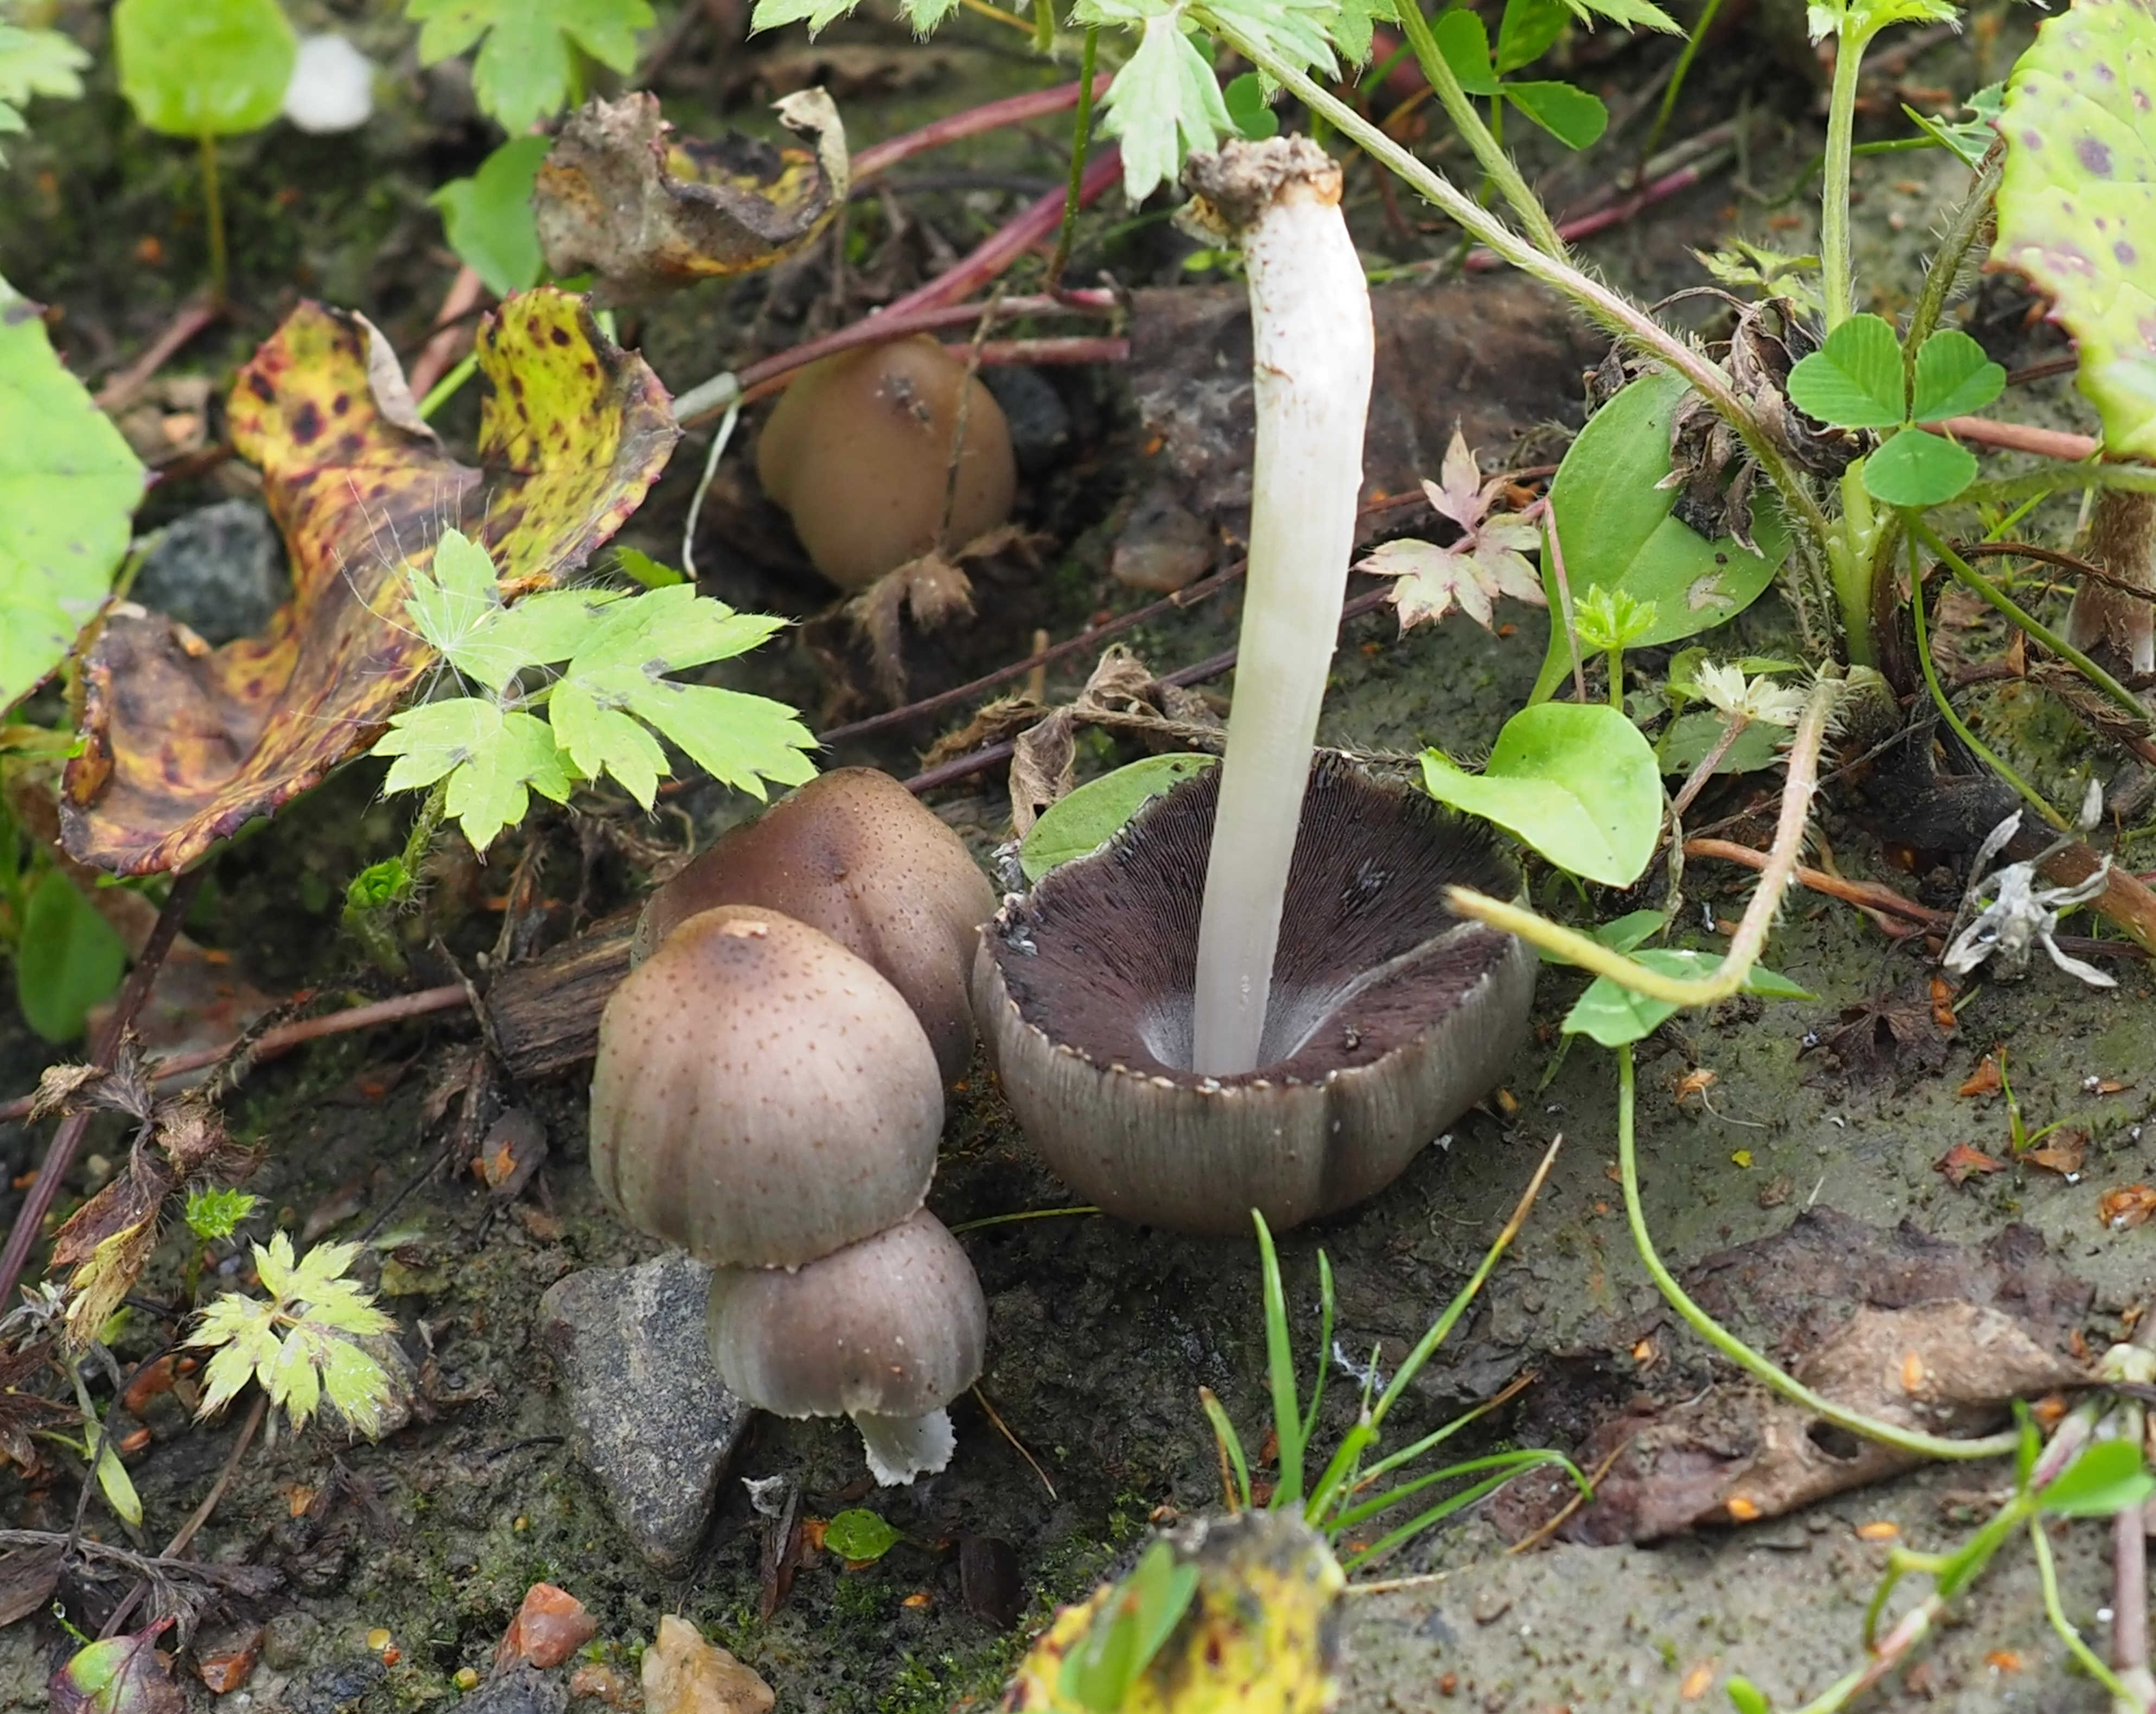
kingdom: Fungi
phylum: Basidiomycota
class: Agaricomycetes
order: Agaricales
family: Psathyrellaceae
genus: Coprinellus
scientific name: Coprinellus
